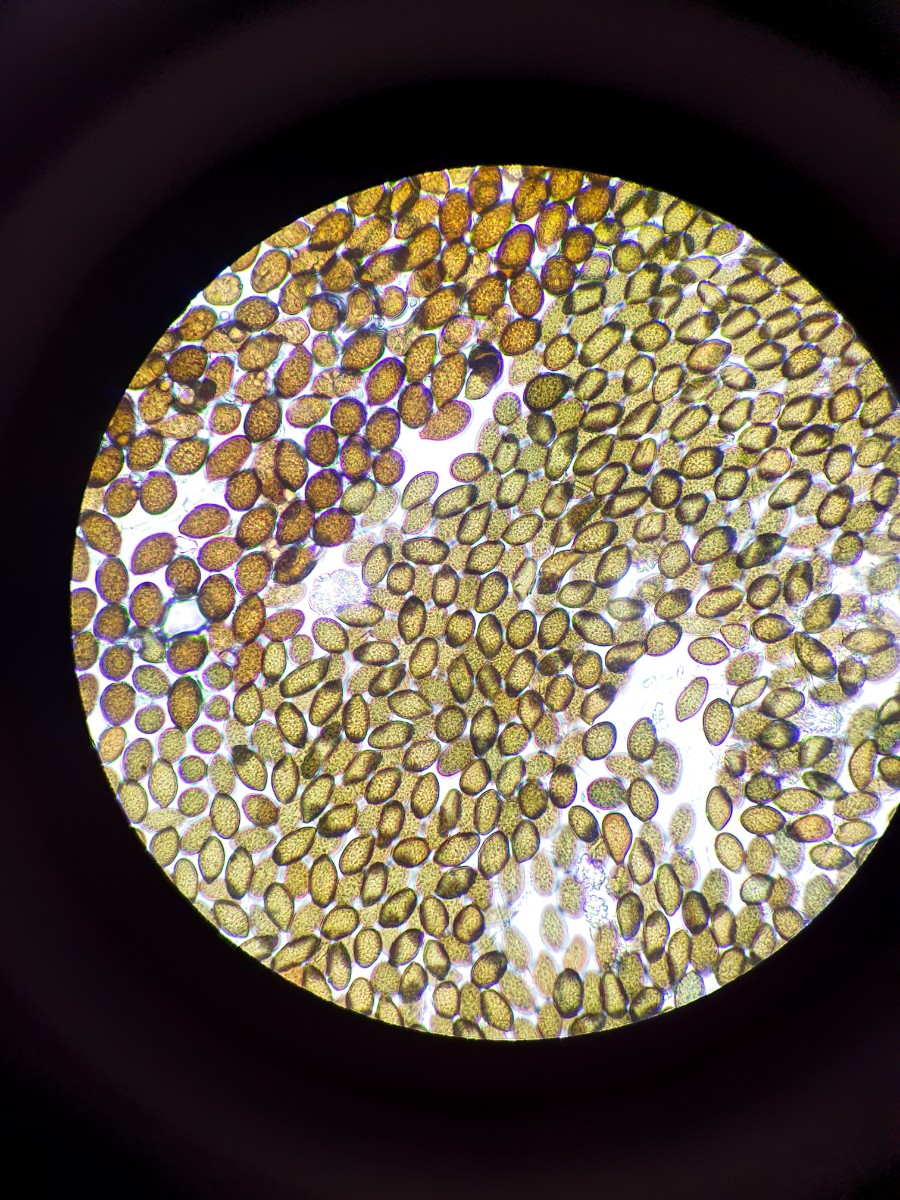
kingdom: Fungi
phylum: Ascomycota
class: Sordariomycetes
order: Diaporthales
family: Juglanconidaceae
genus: Juglanconis
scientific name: Juglanconis juglandina
